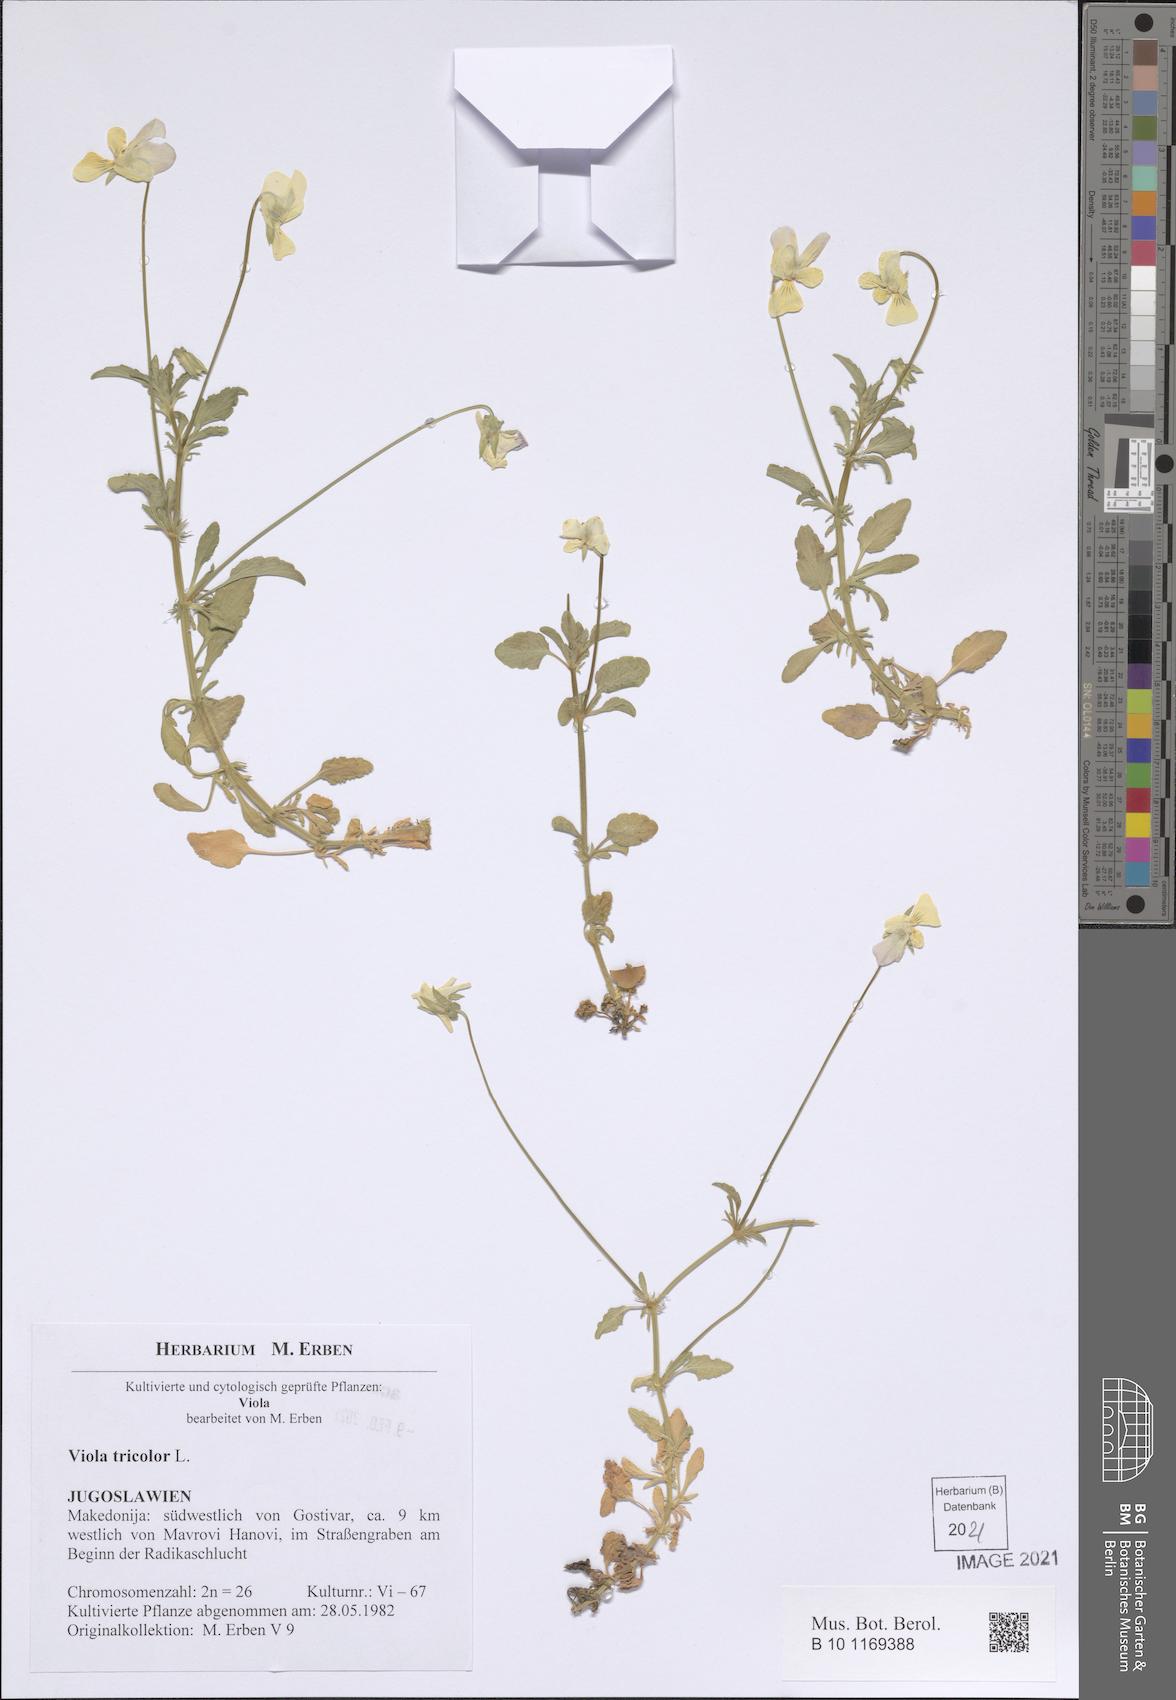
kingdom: Plantae
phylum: Tracheophyta
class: Magnoliopsida
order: Malpighiales
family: Violaceae
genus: Viola
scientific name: Viola tricolor
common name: Pansy
